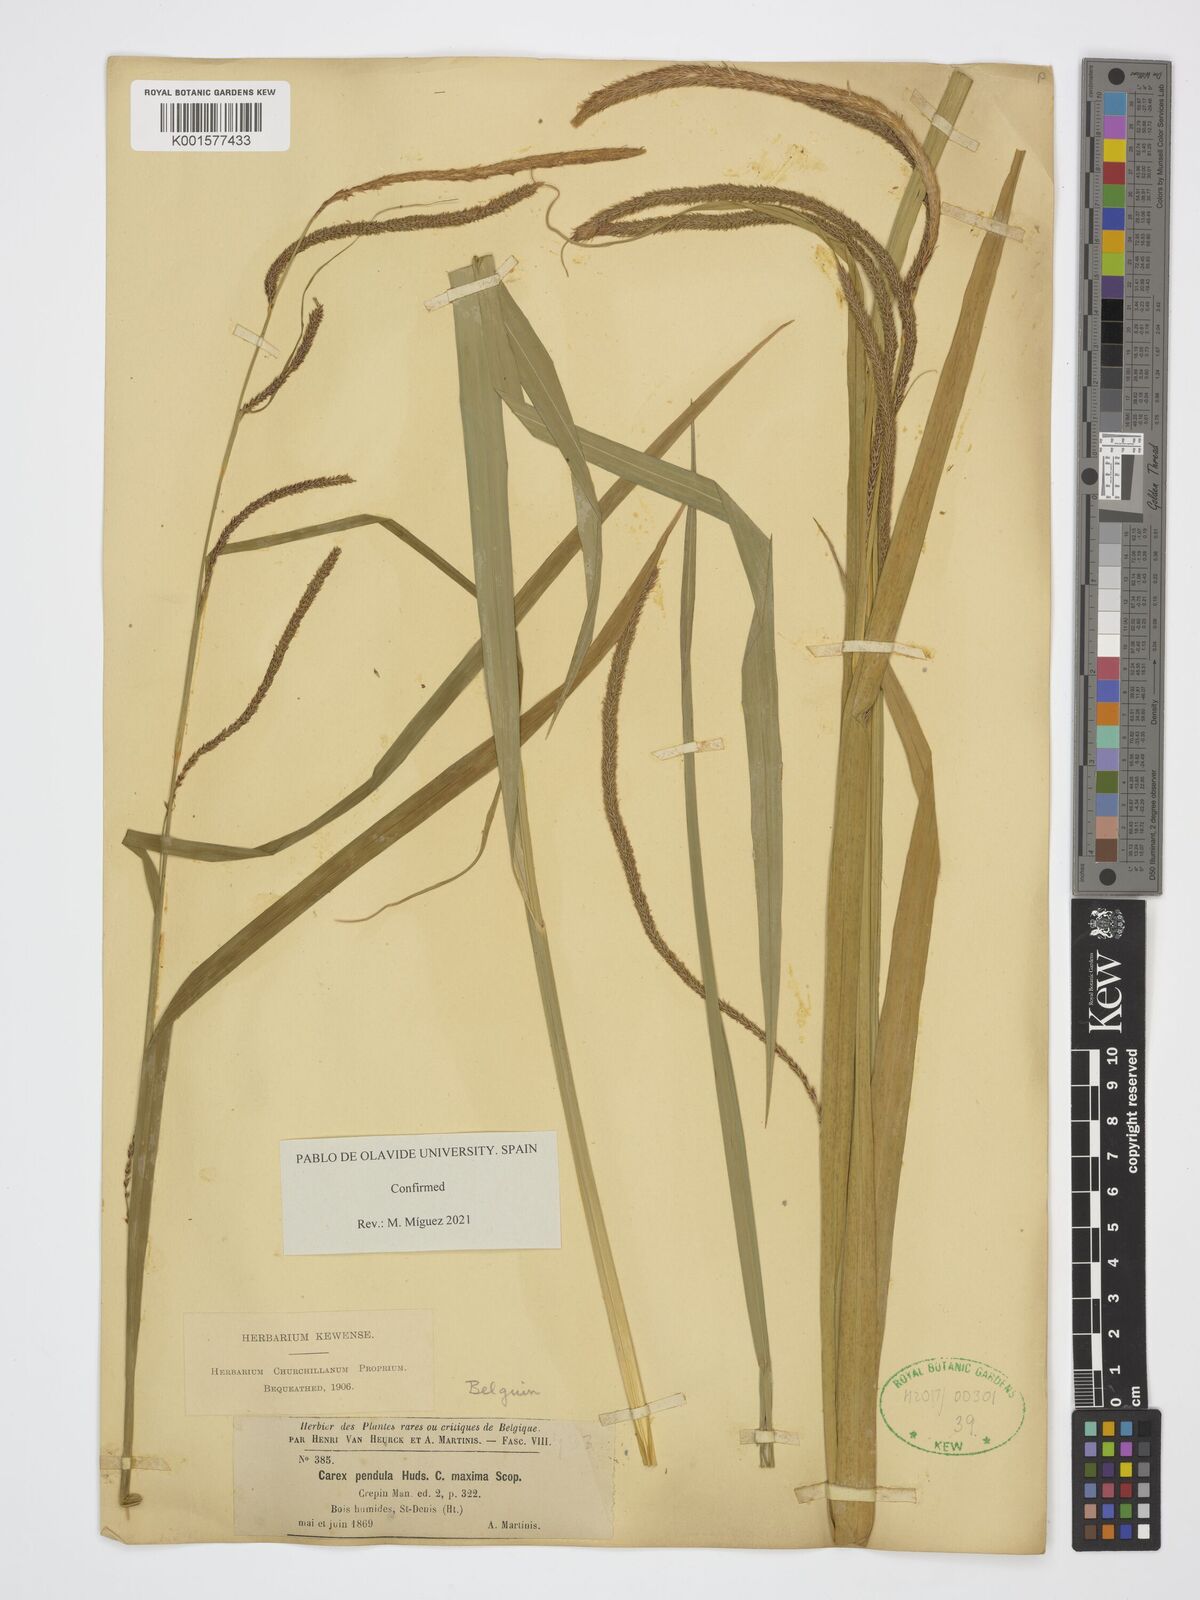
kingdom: Plantae
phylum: Tracheophyta
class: Liliopsida
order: Poales
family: Cyperaceae
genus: Carex
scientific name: Carex pendula
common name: Pendulous sedge
